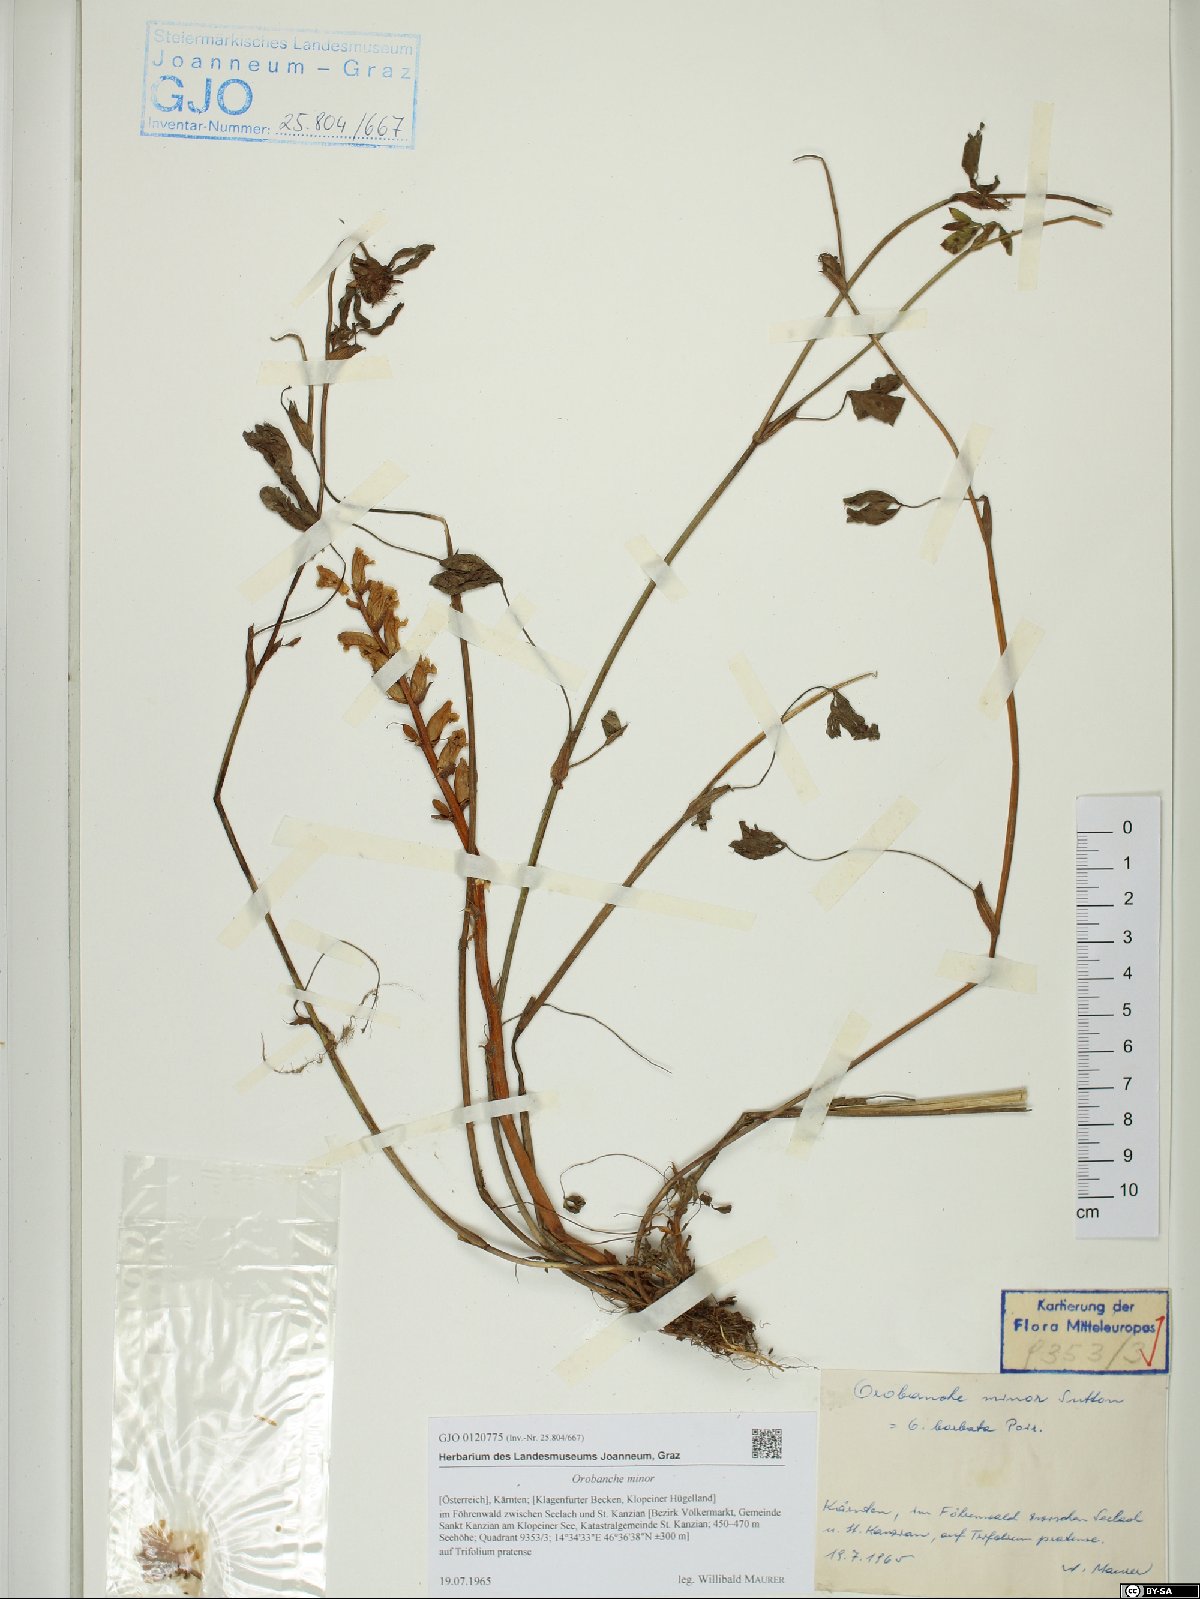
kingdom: Plantae
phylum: Tracheophyta
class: Magnoliopsida
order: Lamiales
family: Orobanchaceae
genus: Orobanche
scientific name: Orobanche minor
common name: Common broomrape
